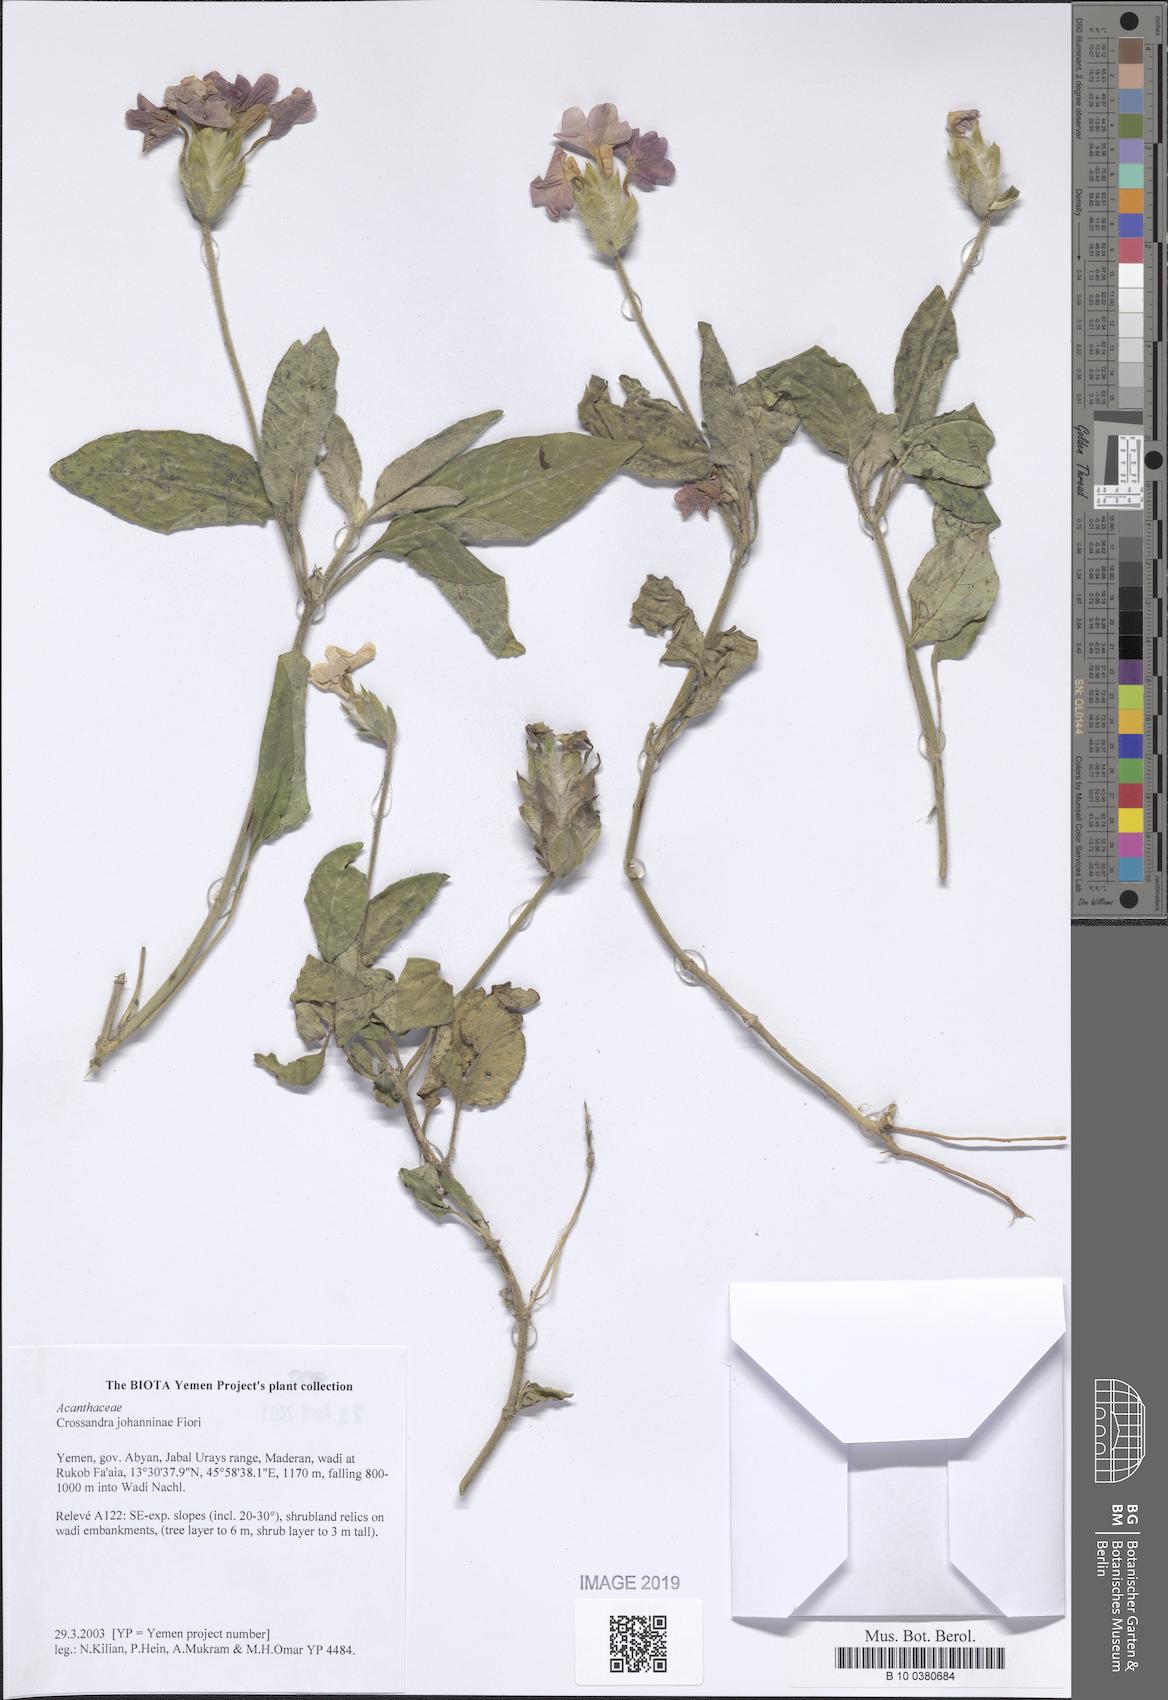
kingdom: Plantae
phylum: Tracheophyta
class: Magnoliopsida
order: Lamiales
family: Acanthaceae
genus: Crossandra
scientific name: Crossandra johanninae
